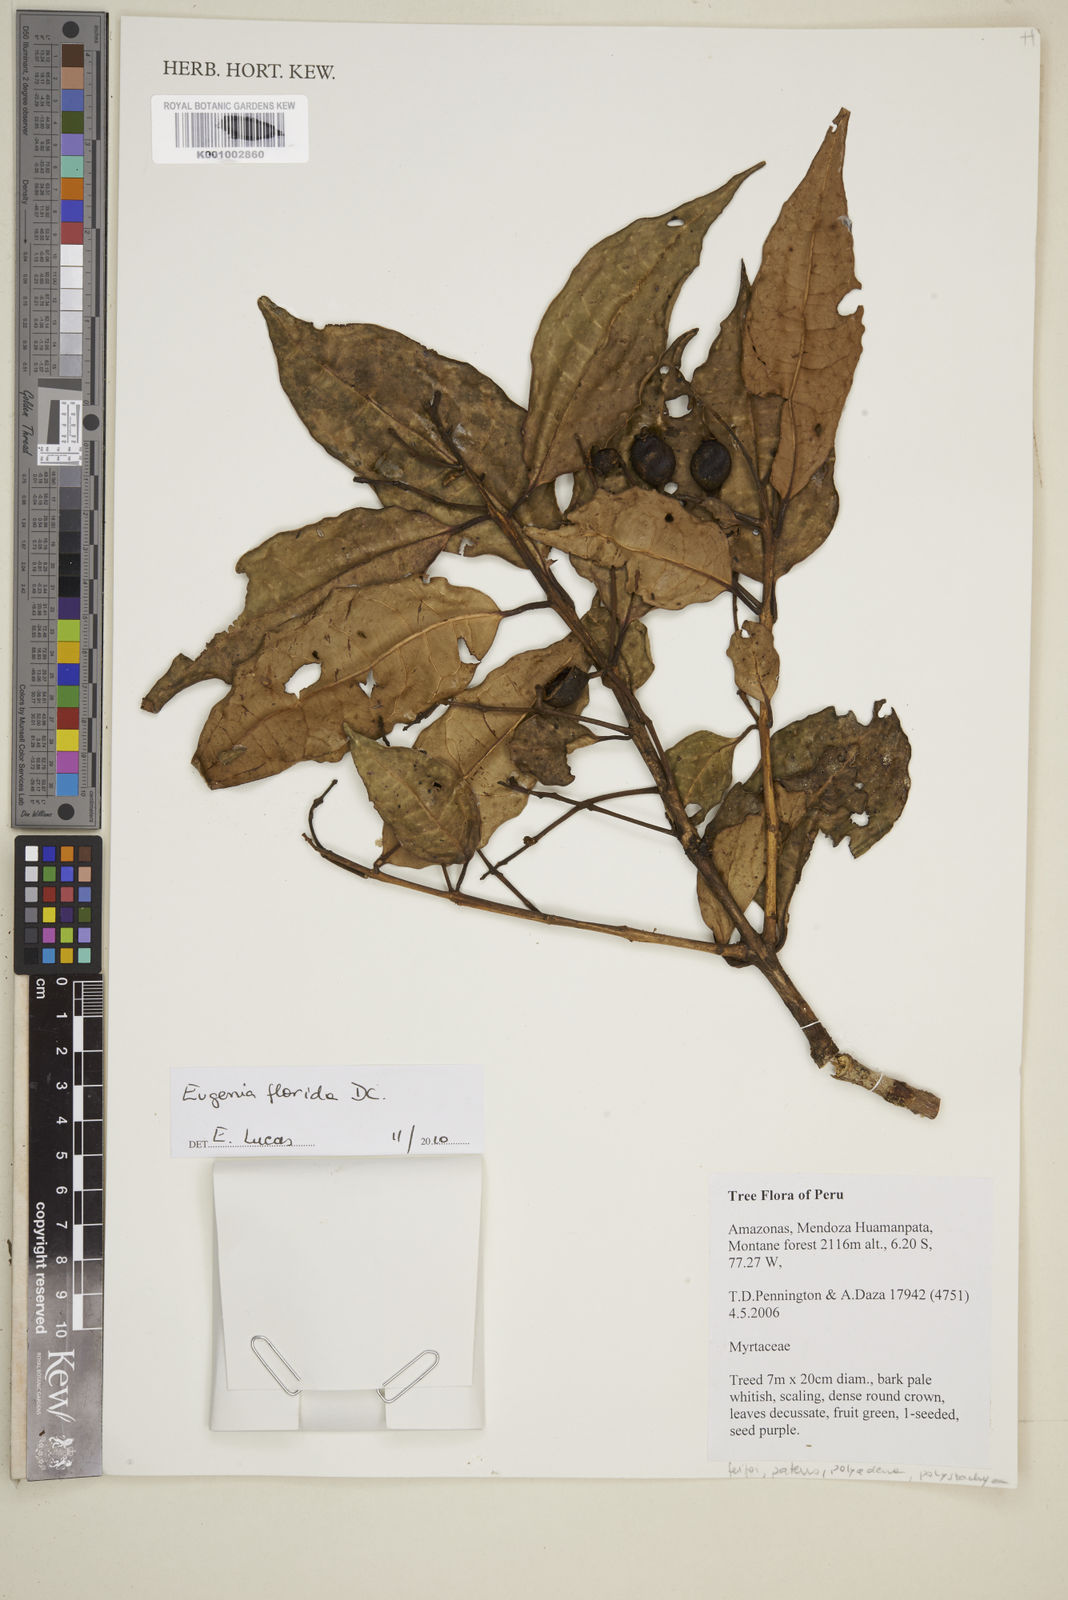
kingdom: Plantae
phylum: Tracheophyta
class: Magnoliopsida
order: Myrtales
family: Myrtaceae
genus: Eugenia
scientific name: Eugenia florida
